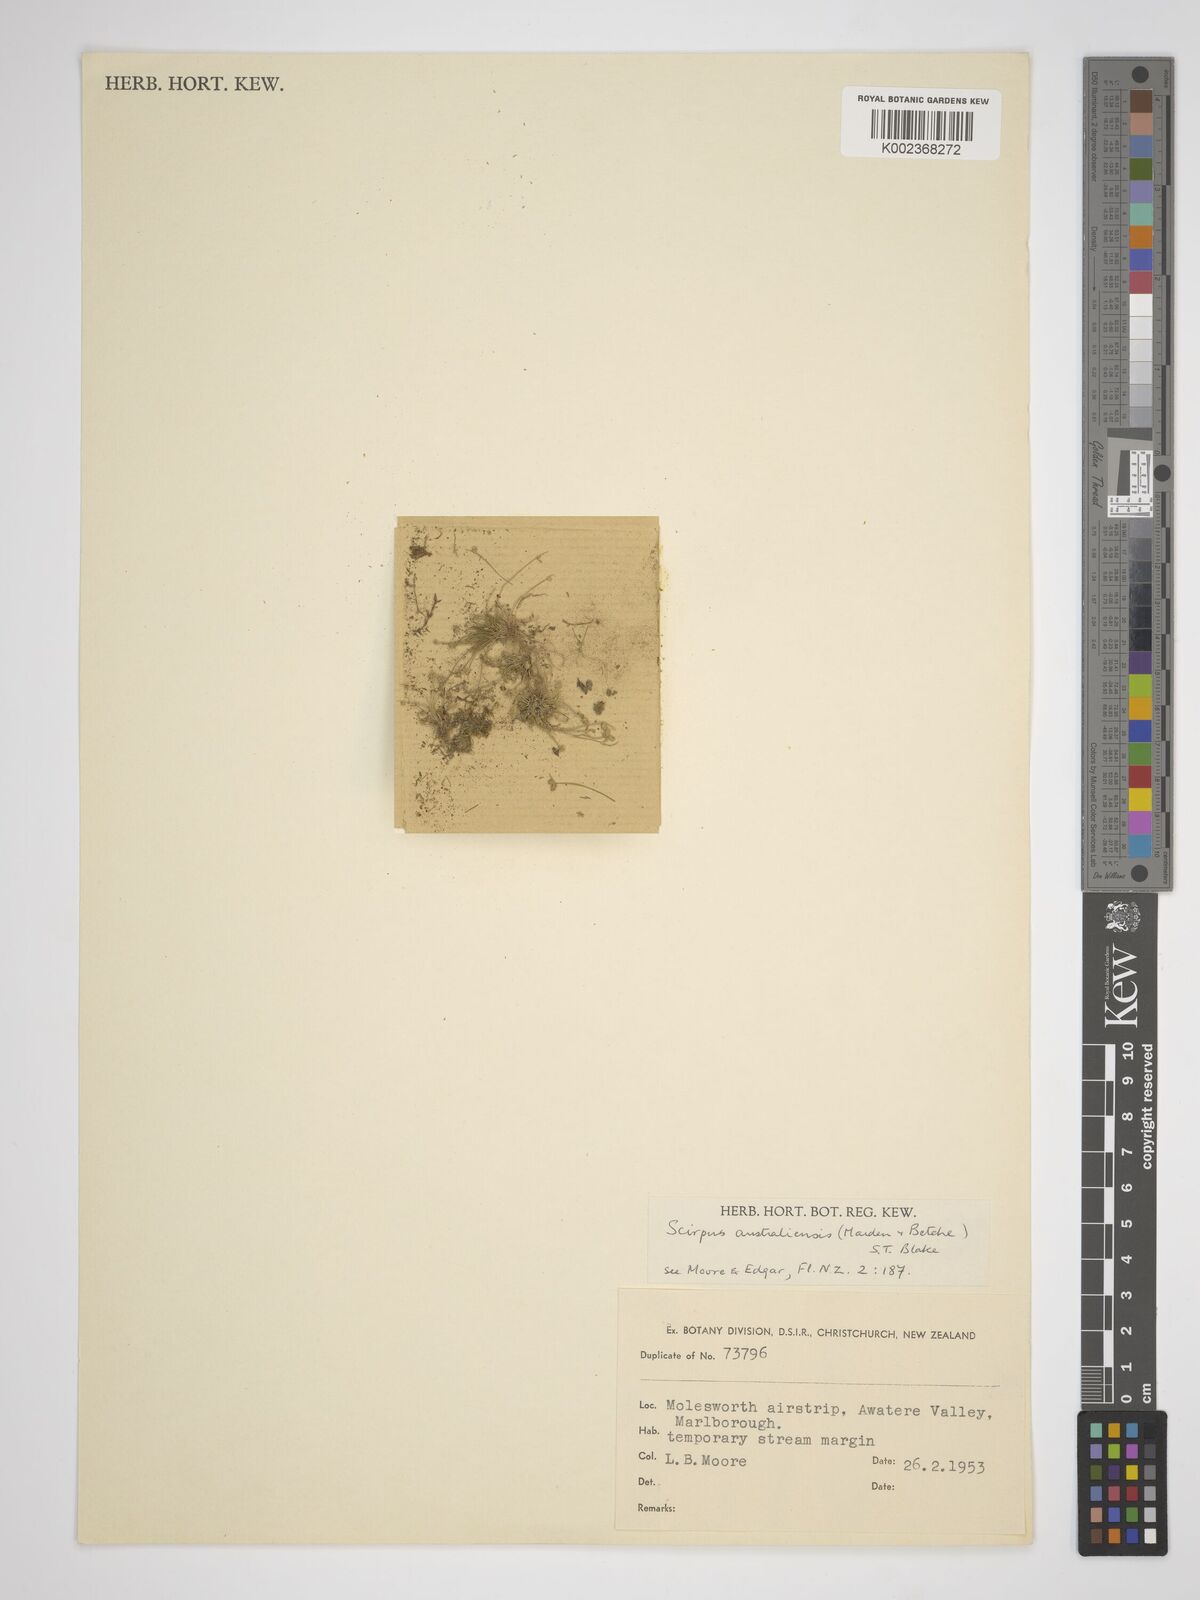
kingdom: Plantae
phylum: Tracheophyta
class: Liliopsida
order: Poales
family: Cyperaceae
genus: Isolepis
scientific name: Isolepis australiensis
